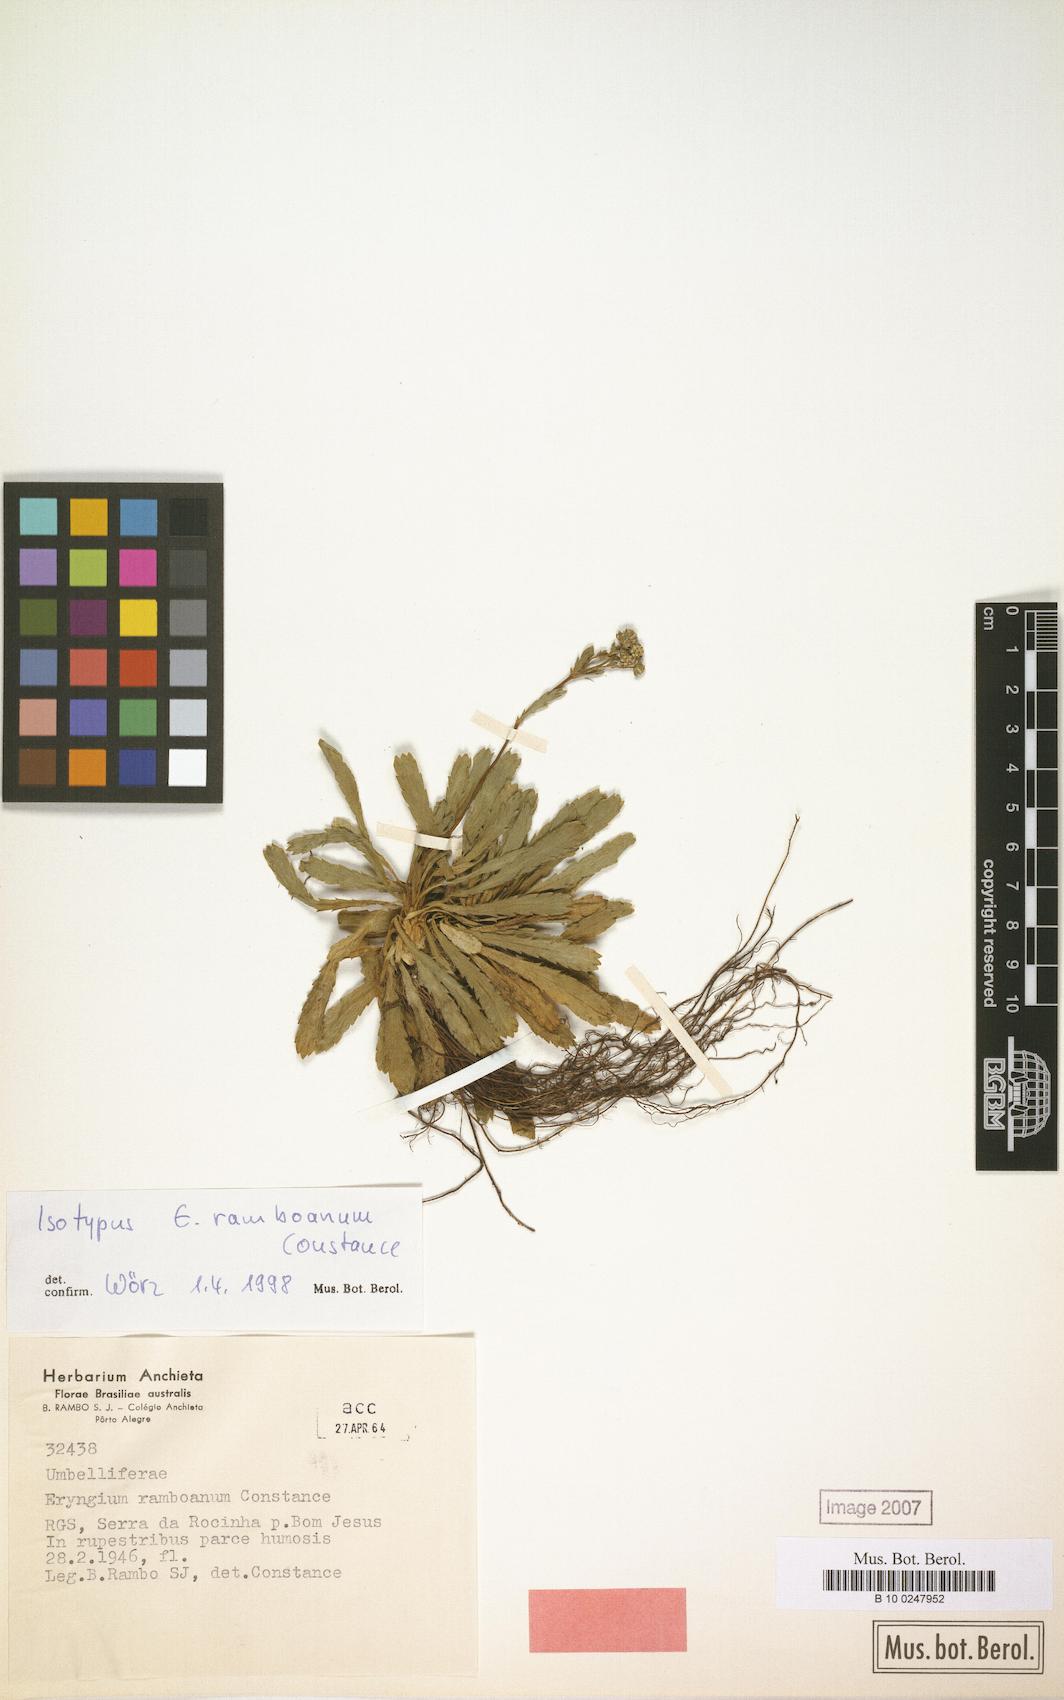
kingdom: Plantae
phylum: Tracheophyta
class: Magnoliopsida
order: Apiales
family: Apiaceae
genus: Eryngium
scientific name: Eryngium ramboanum
